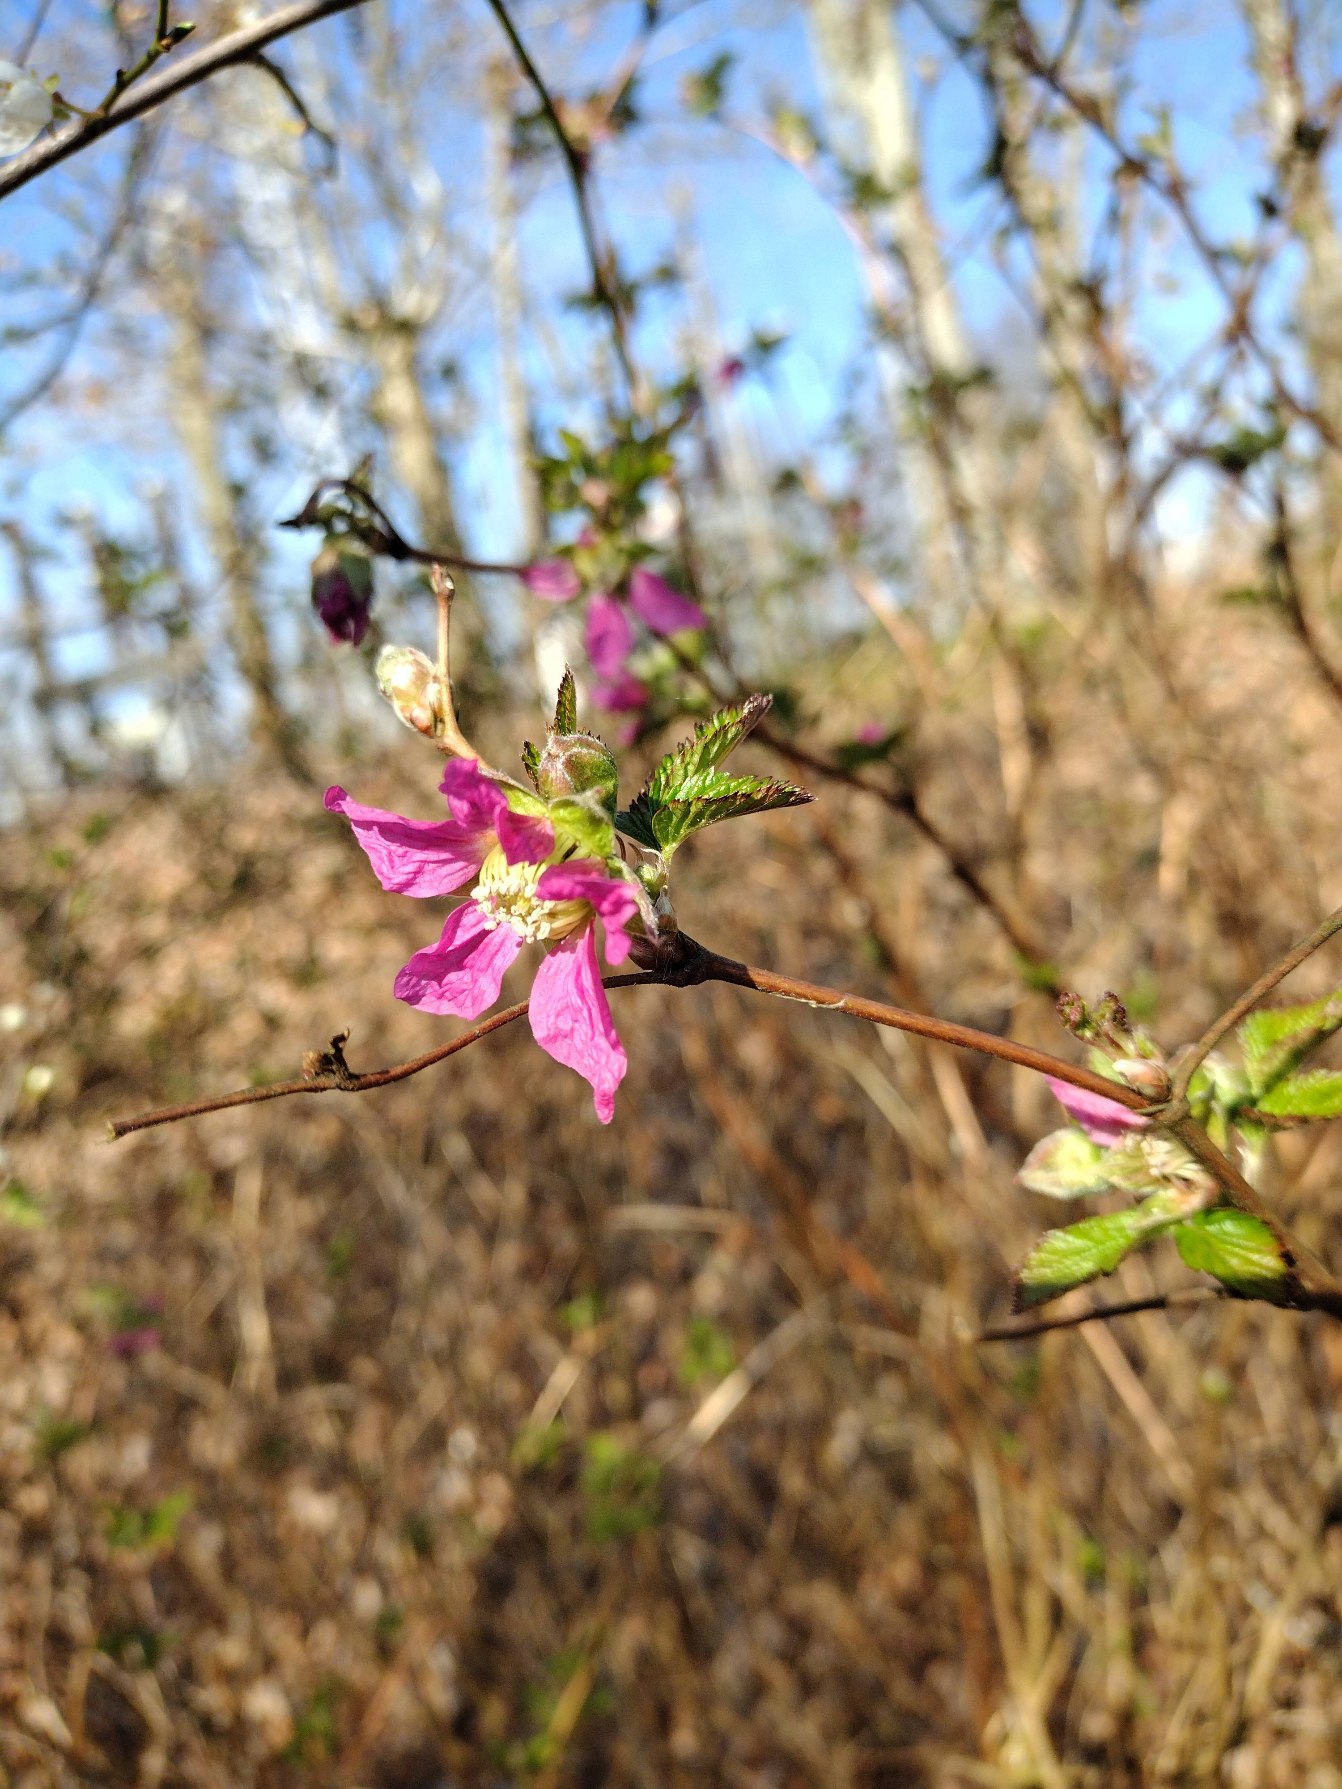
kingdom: Plantae
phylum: Tracheophyta
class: Magnoliopsida
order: Rosales
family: Rosaceae
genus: Rubus
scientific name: Rubus spectabilis
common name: Laksebær
